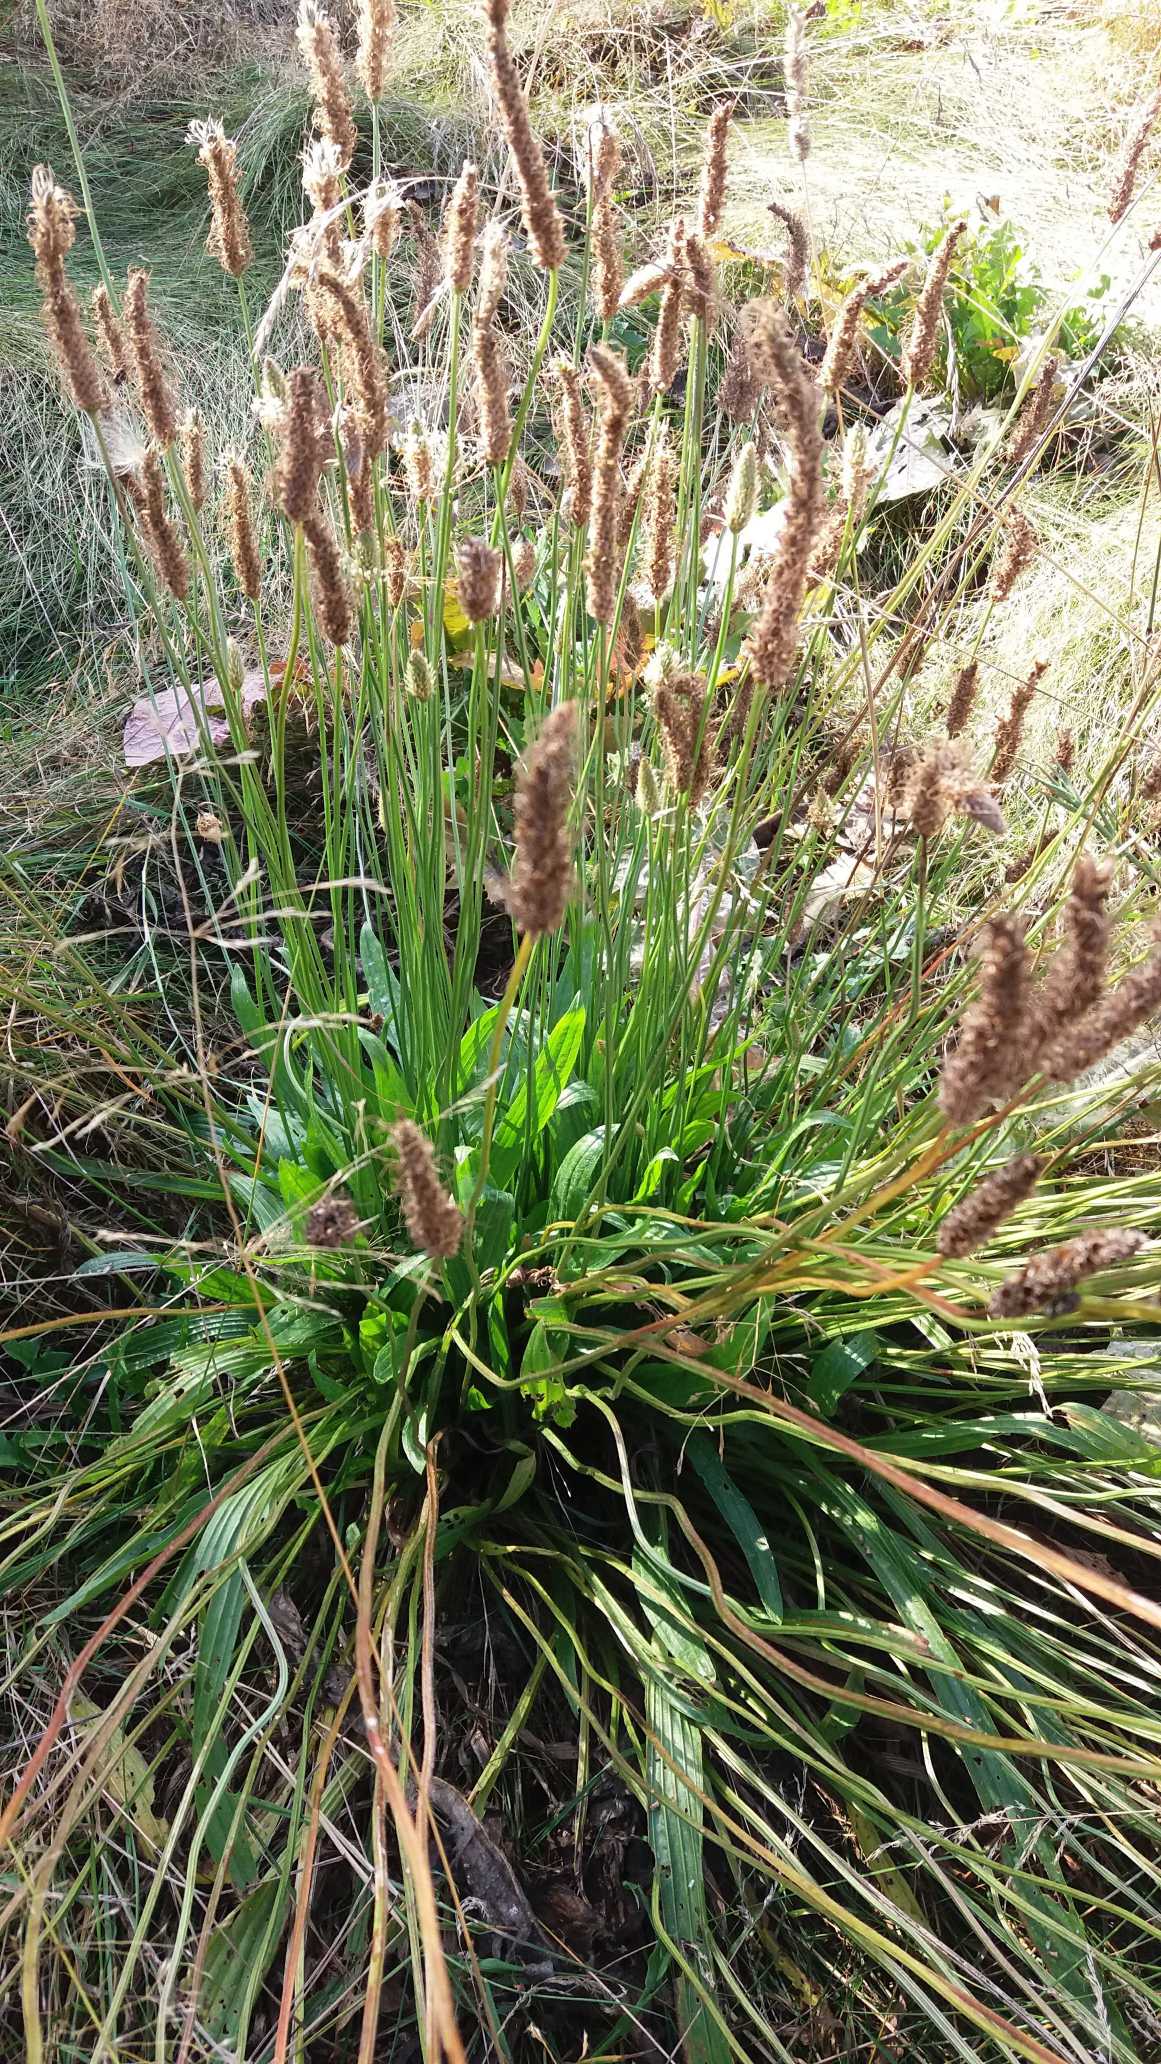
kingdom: Plantae
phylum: Tracheophyta
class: Magnoliopsida
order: Lamiales
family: Plantaginaceae
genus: Plantago
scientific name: Plantago lanceolata
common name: Lancet-vejbred
